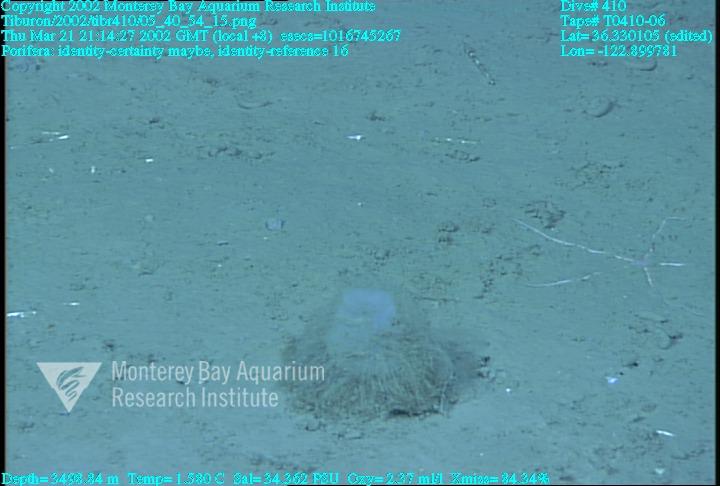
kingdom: Animalia
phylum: Porifera
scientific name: Porifera
